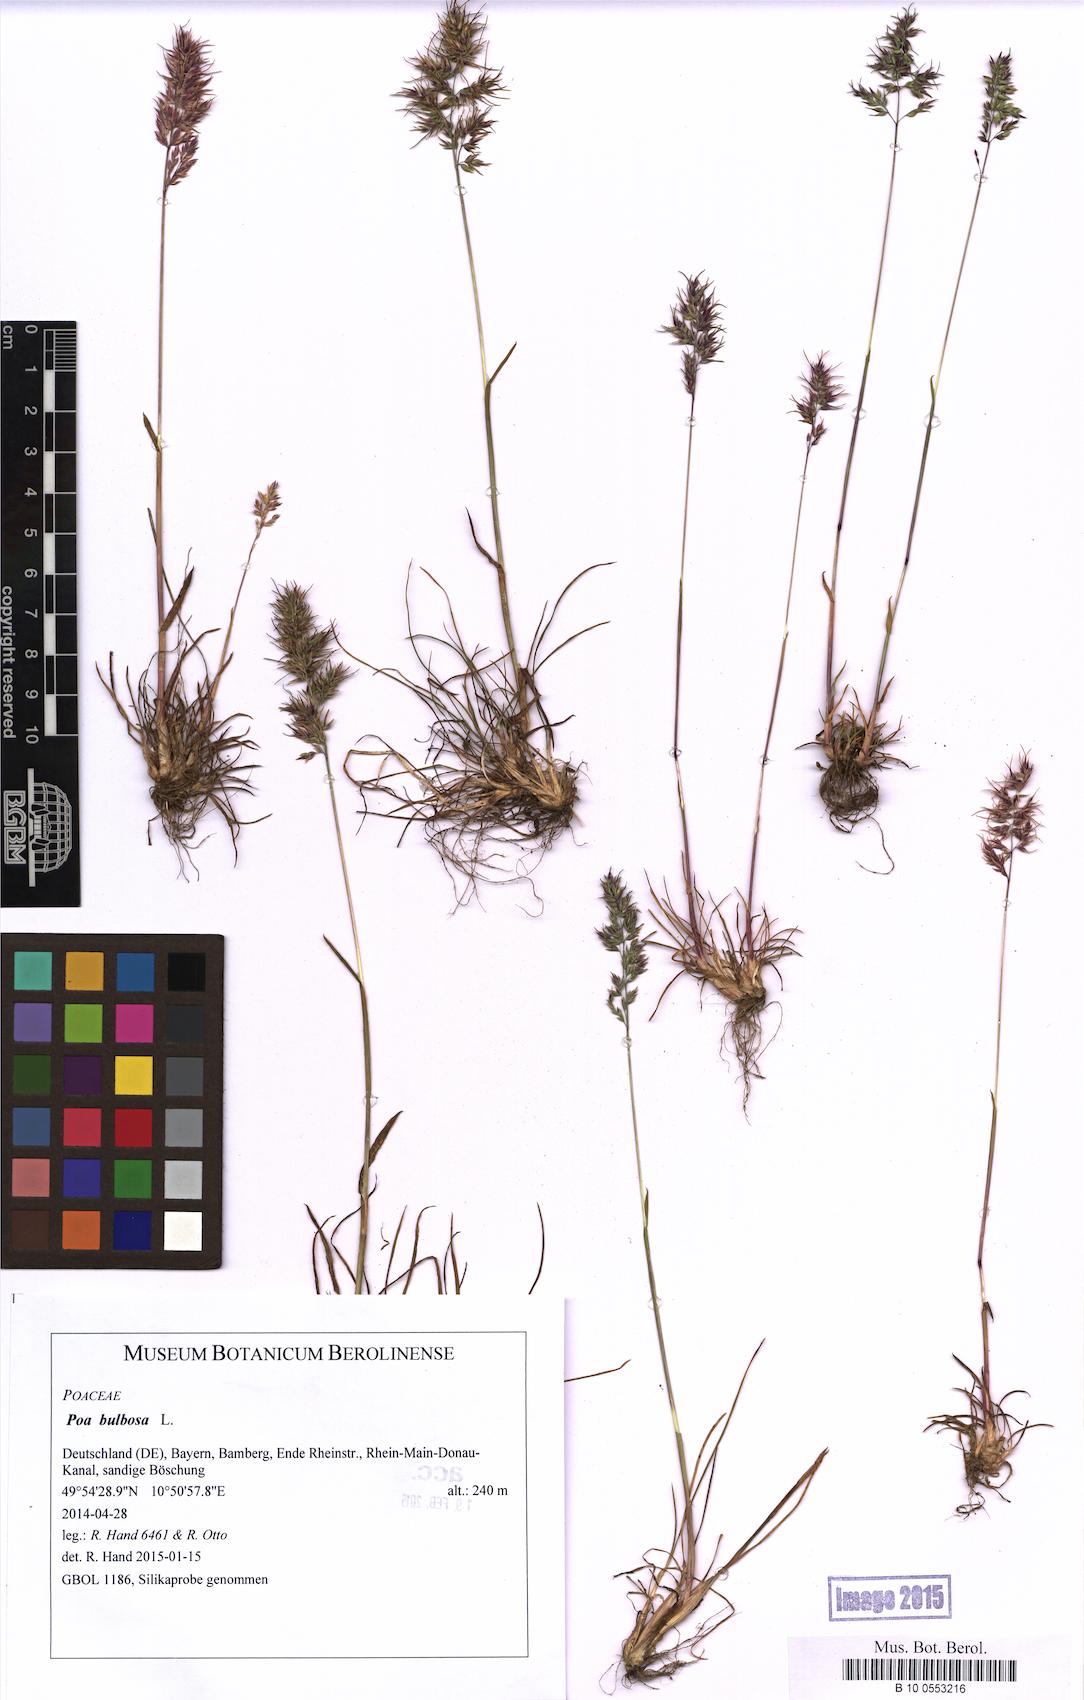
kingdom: Plantae
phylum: Tracheophyta
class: Liliopsida
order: Poales
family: Poaceae
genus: Poa
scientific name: Poa bulbosa
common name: Bulbous bluegrass
